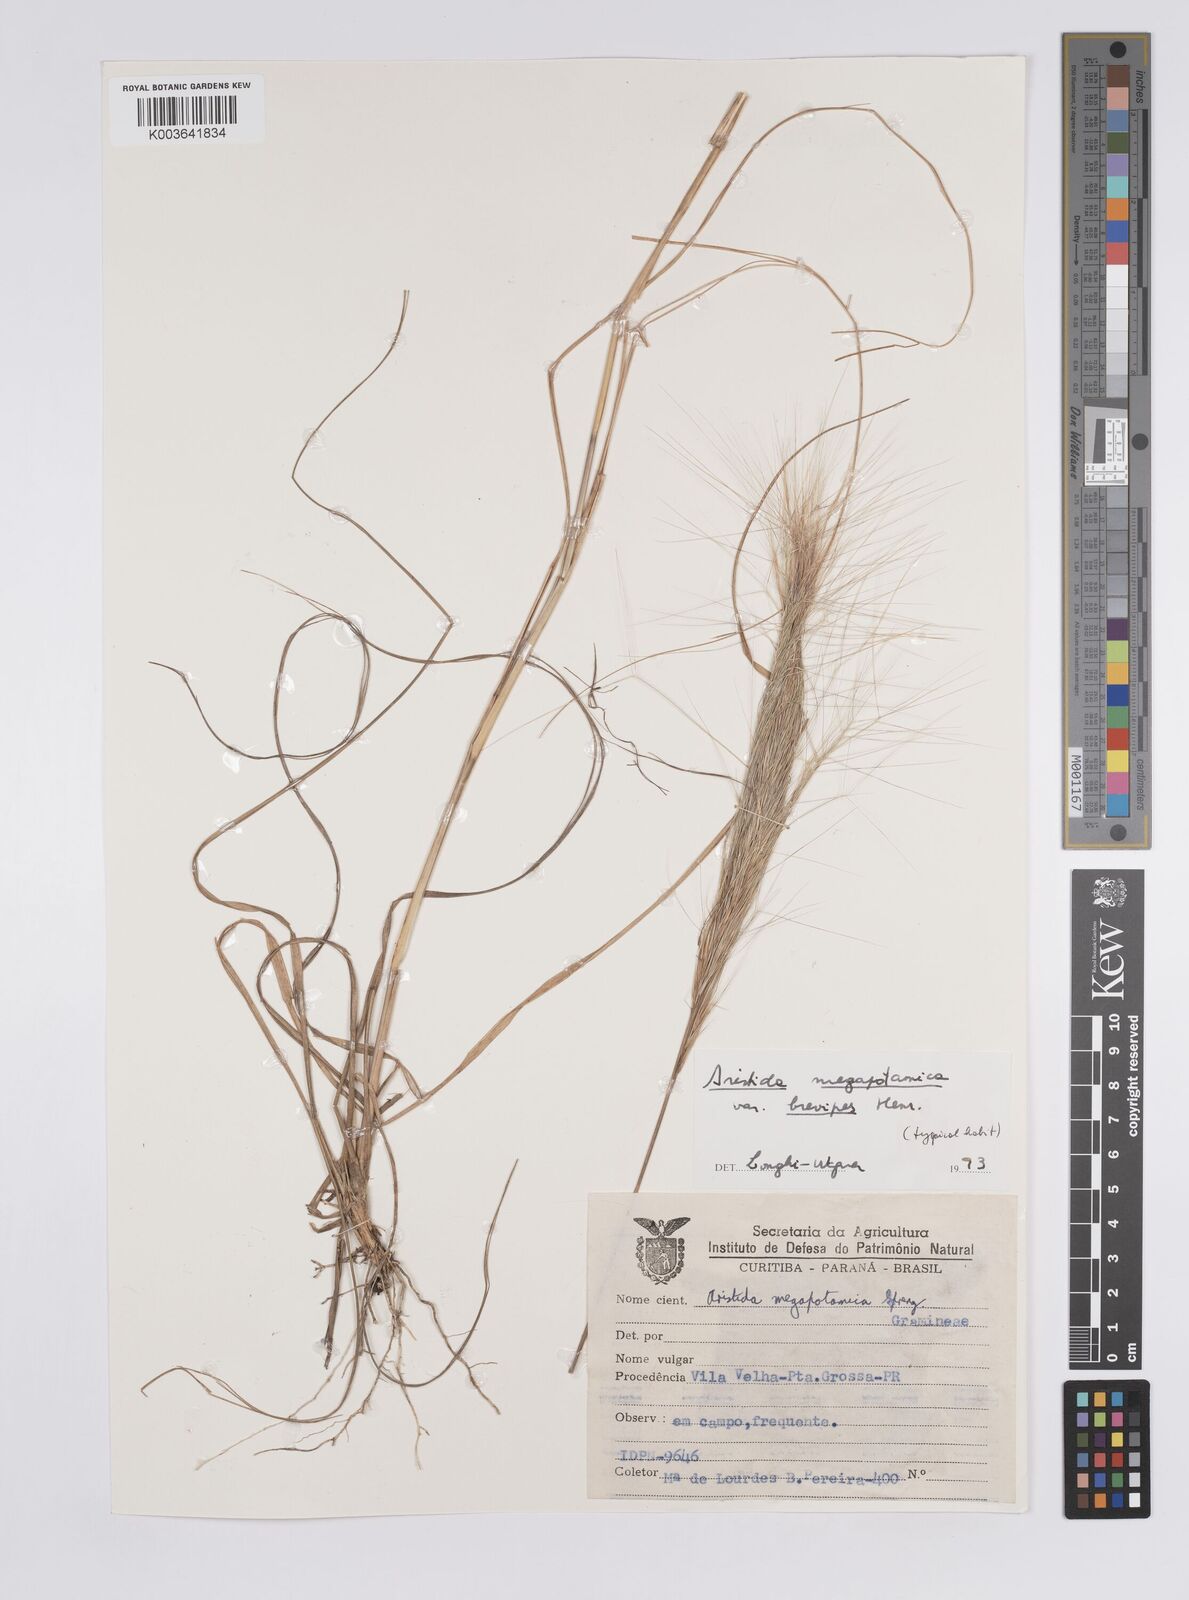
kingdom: Plantae
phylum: Tracheophyta
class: Liliopsida
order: Poales
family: Poaceae
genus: Aristida
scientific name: Aristida megapotamica
